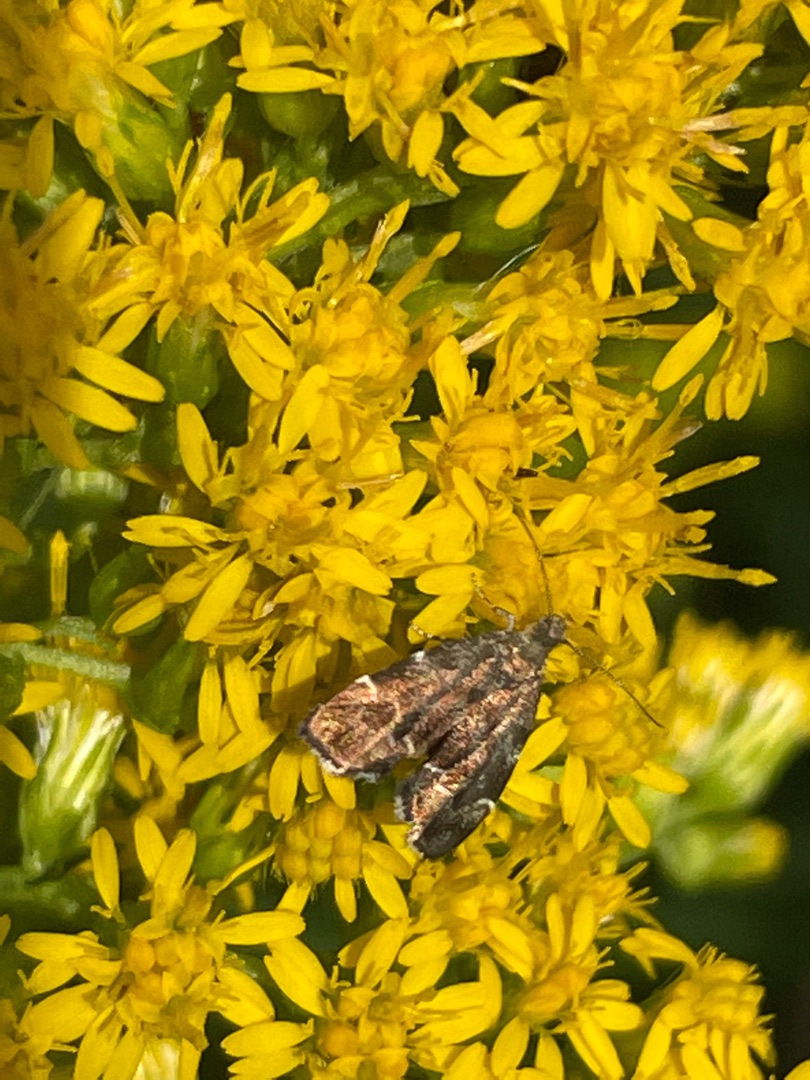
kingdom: Animalia
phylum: Arthropoda
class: Insecta
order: Lepidoptera
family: Choreutidae
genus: Anthophila
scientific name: Anthophila fabriciana
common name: Bredvinget nældevikler
